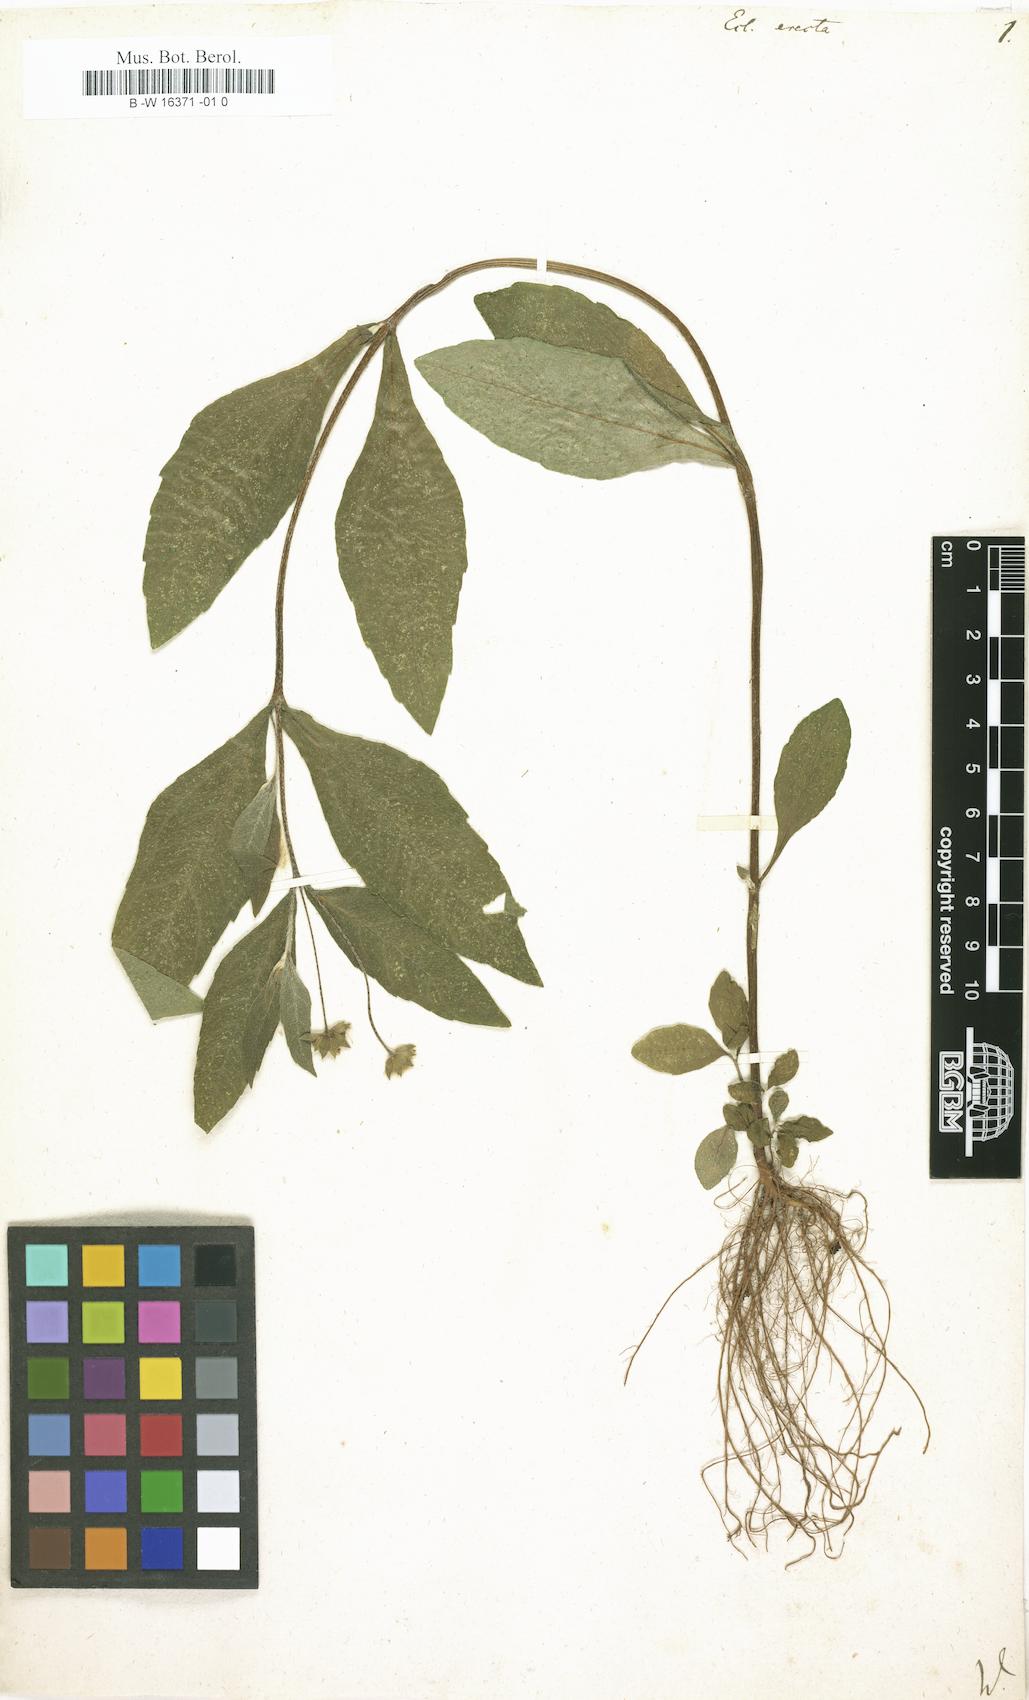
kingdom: Plantae
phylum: Tracheophyta
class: Magnoliopsida
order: Asterales
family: Asteraceae
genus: Eclipta
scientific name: Eclipta alba
